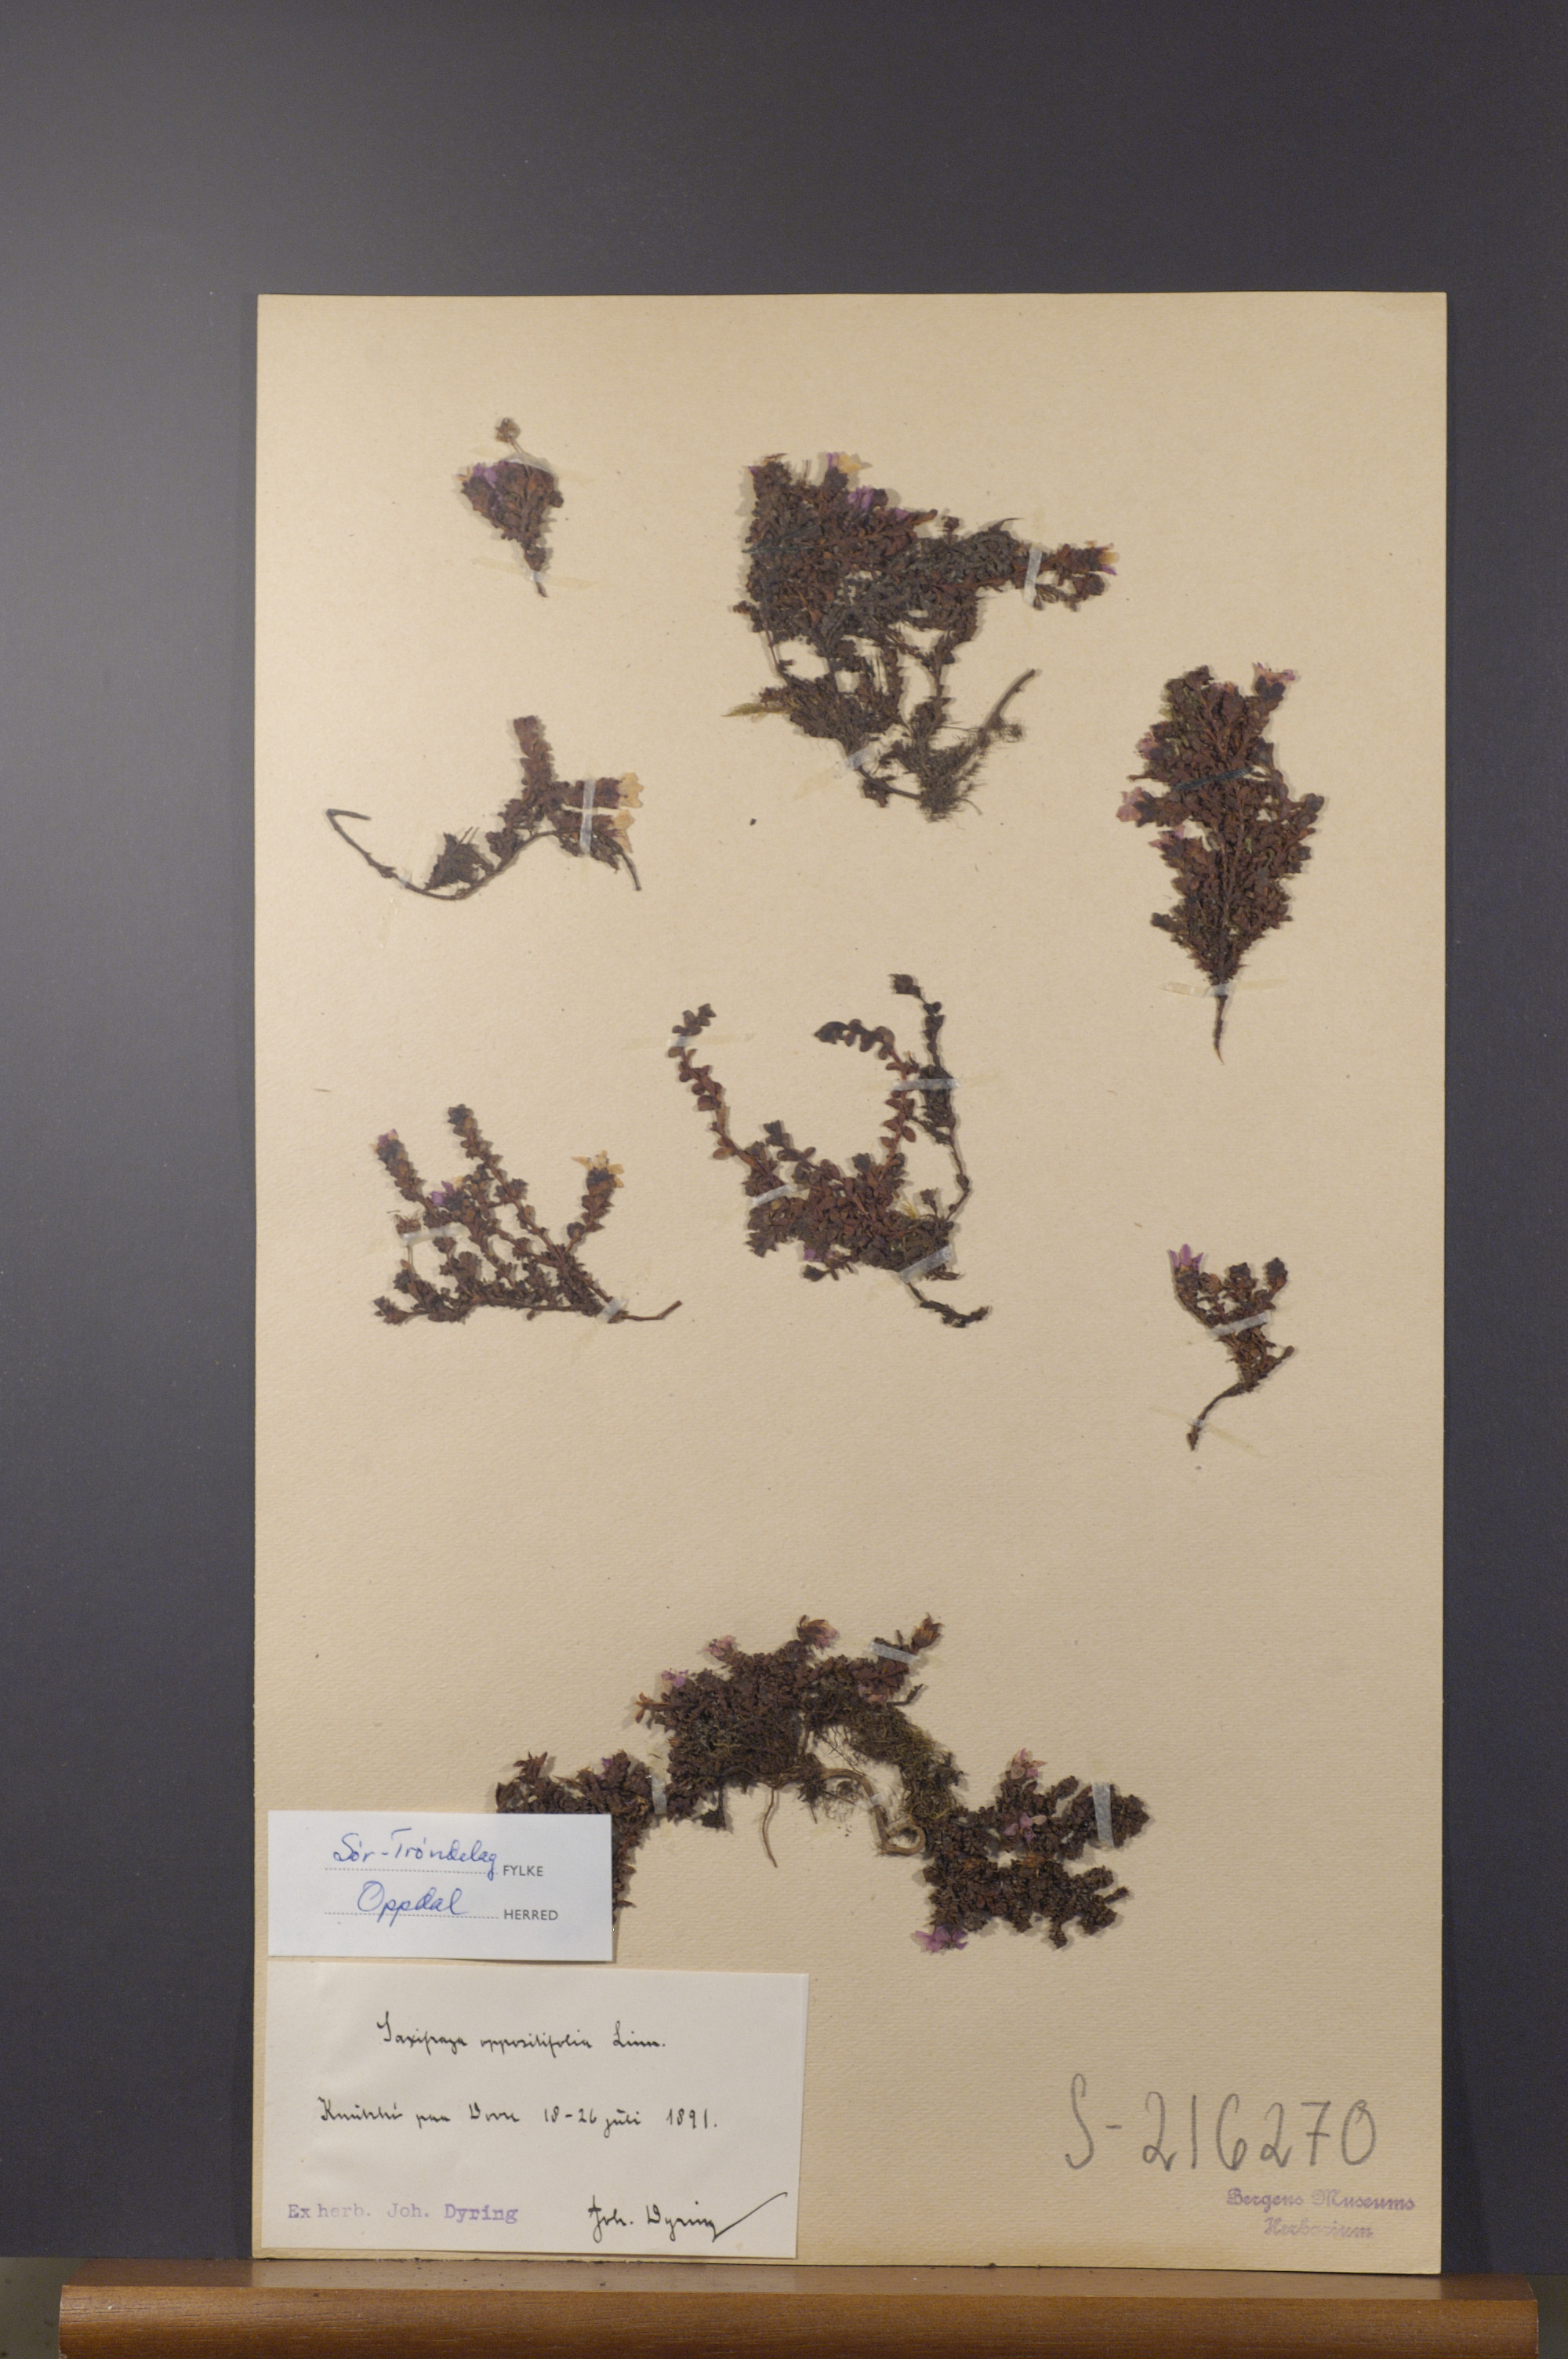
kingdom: Plantae
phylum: Tracheophyta
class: Magnoliopsida
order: Saxifragales
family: Saxifragaceae
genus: Saxifraga
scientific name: Saxifraga oppositifolia
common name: Purple saxifrage
